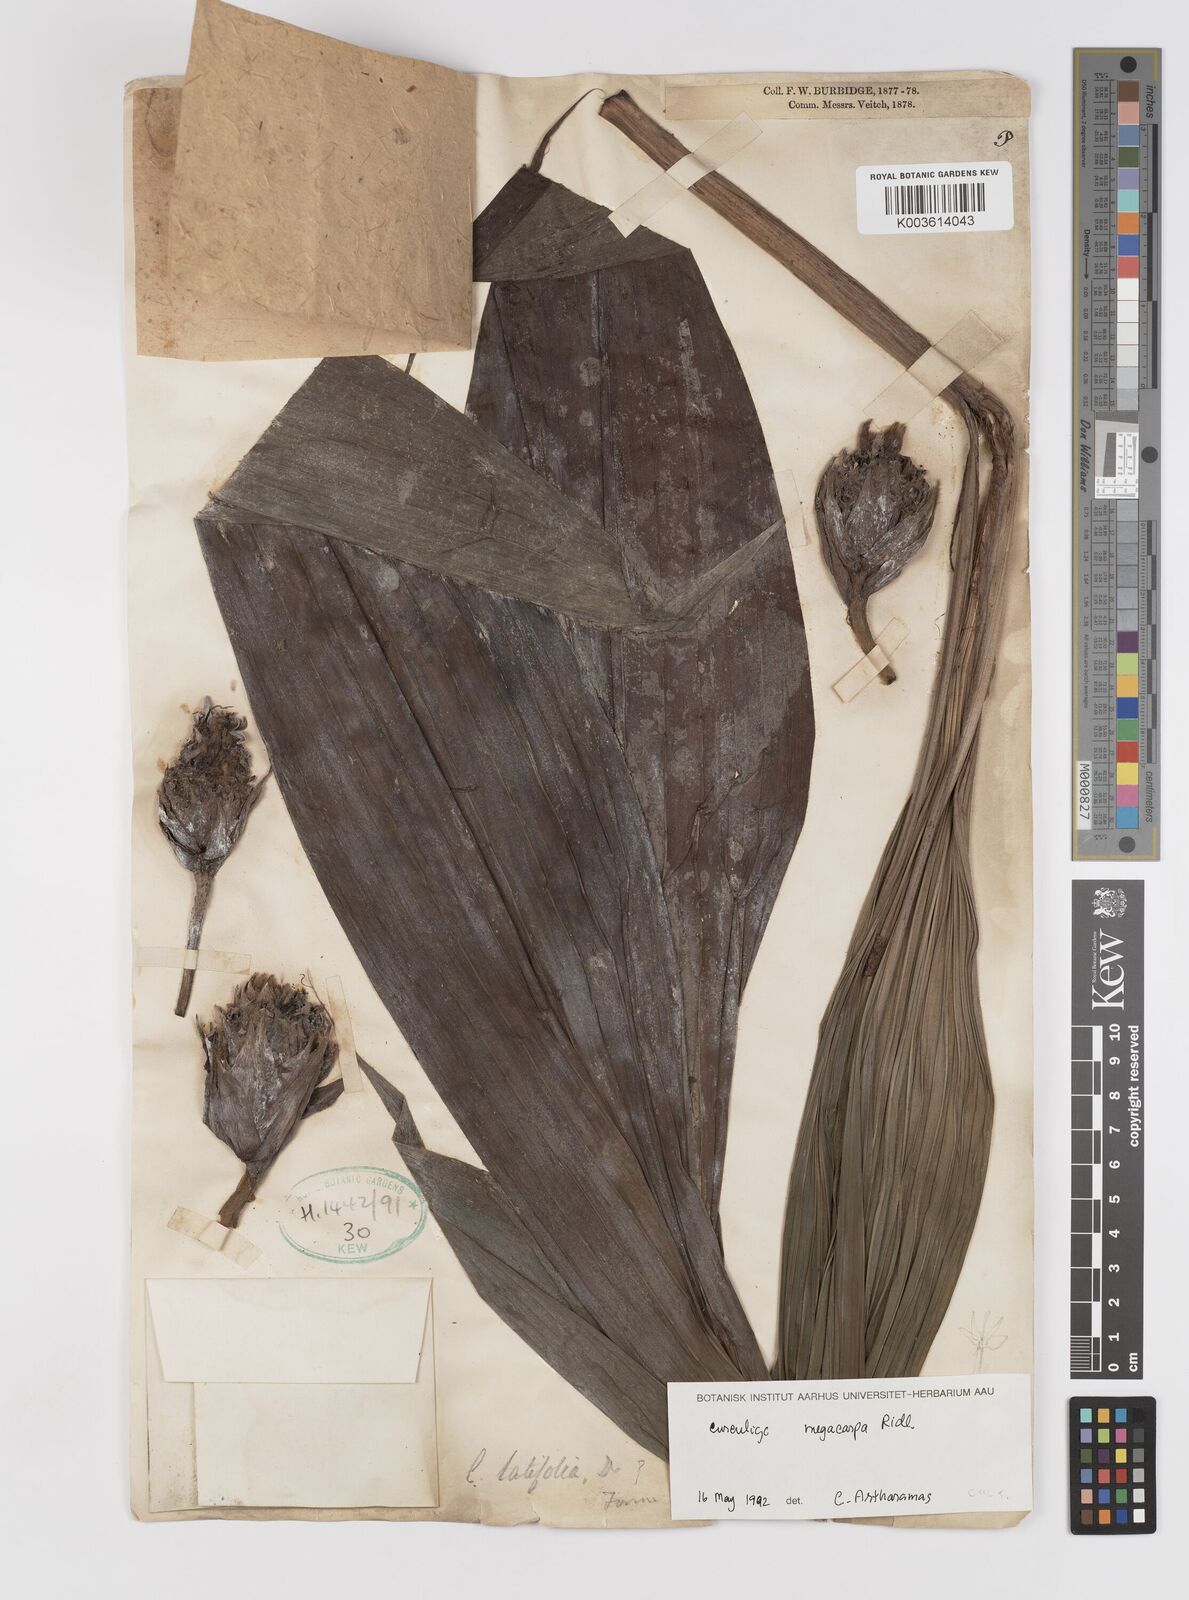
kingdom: Plantae
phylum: Tracheophyta
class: Liliopsida
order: Asparagales
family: Hypoxidaceae
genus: Curculigo
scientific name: Curculigo latifolia
